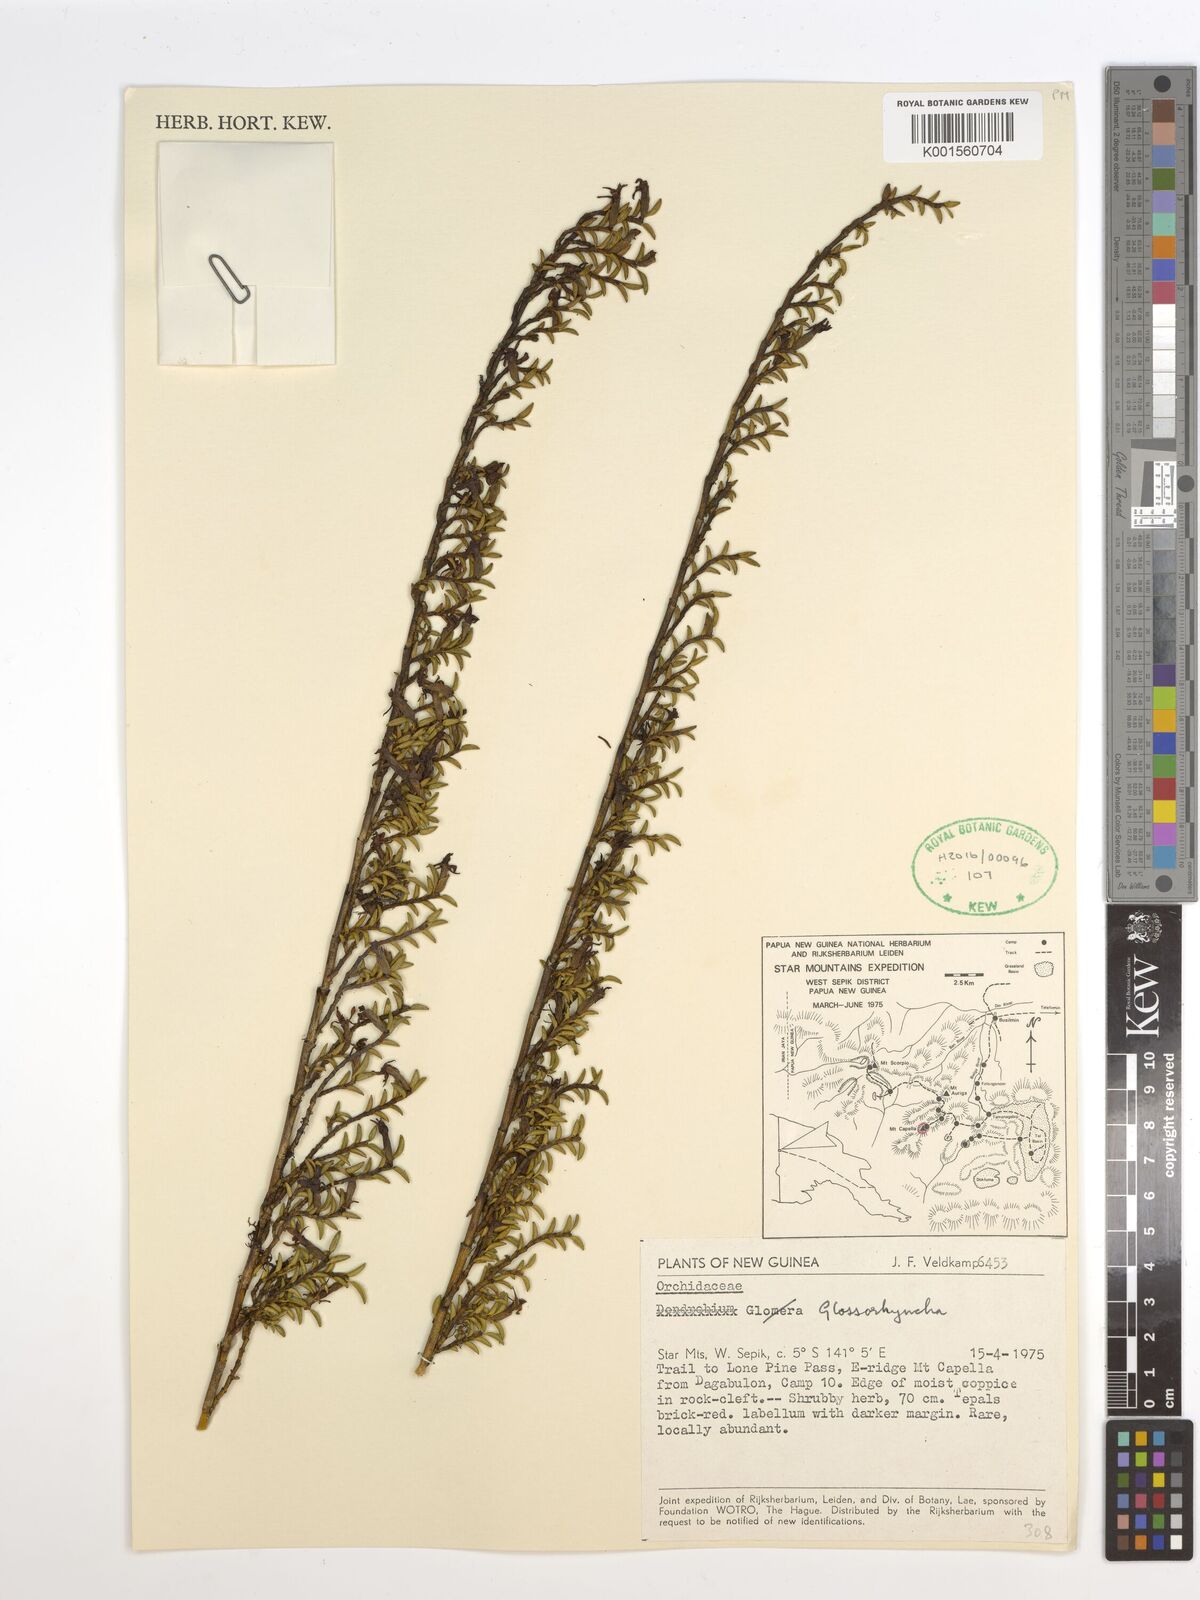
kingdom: Plantae
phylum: Tracheophyta
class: Liliopsida
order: Asparagales
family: Orchidaceae
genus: Glomera
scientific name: Glomera
